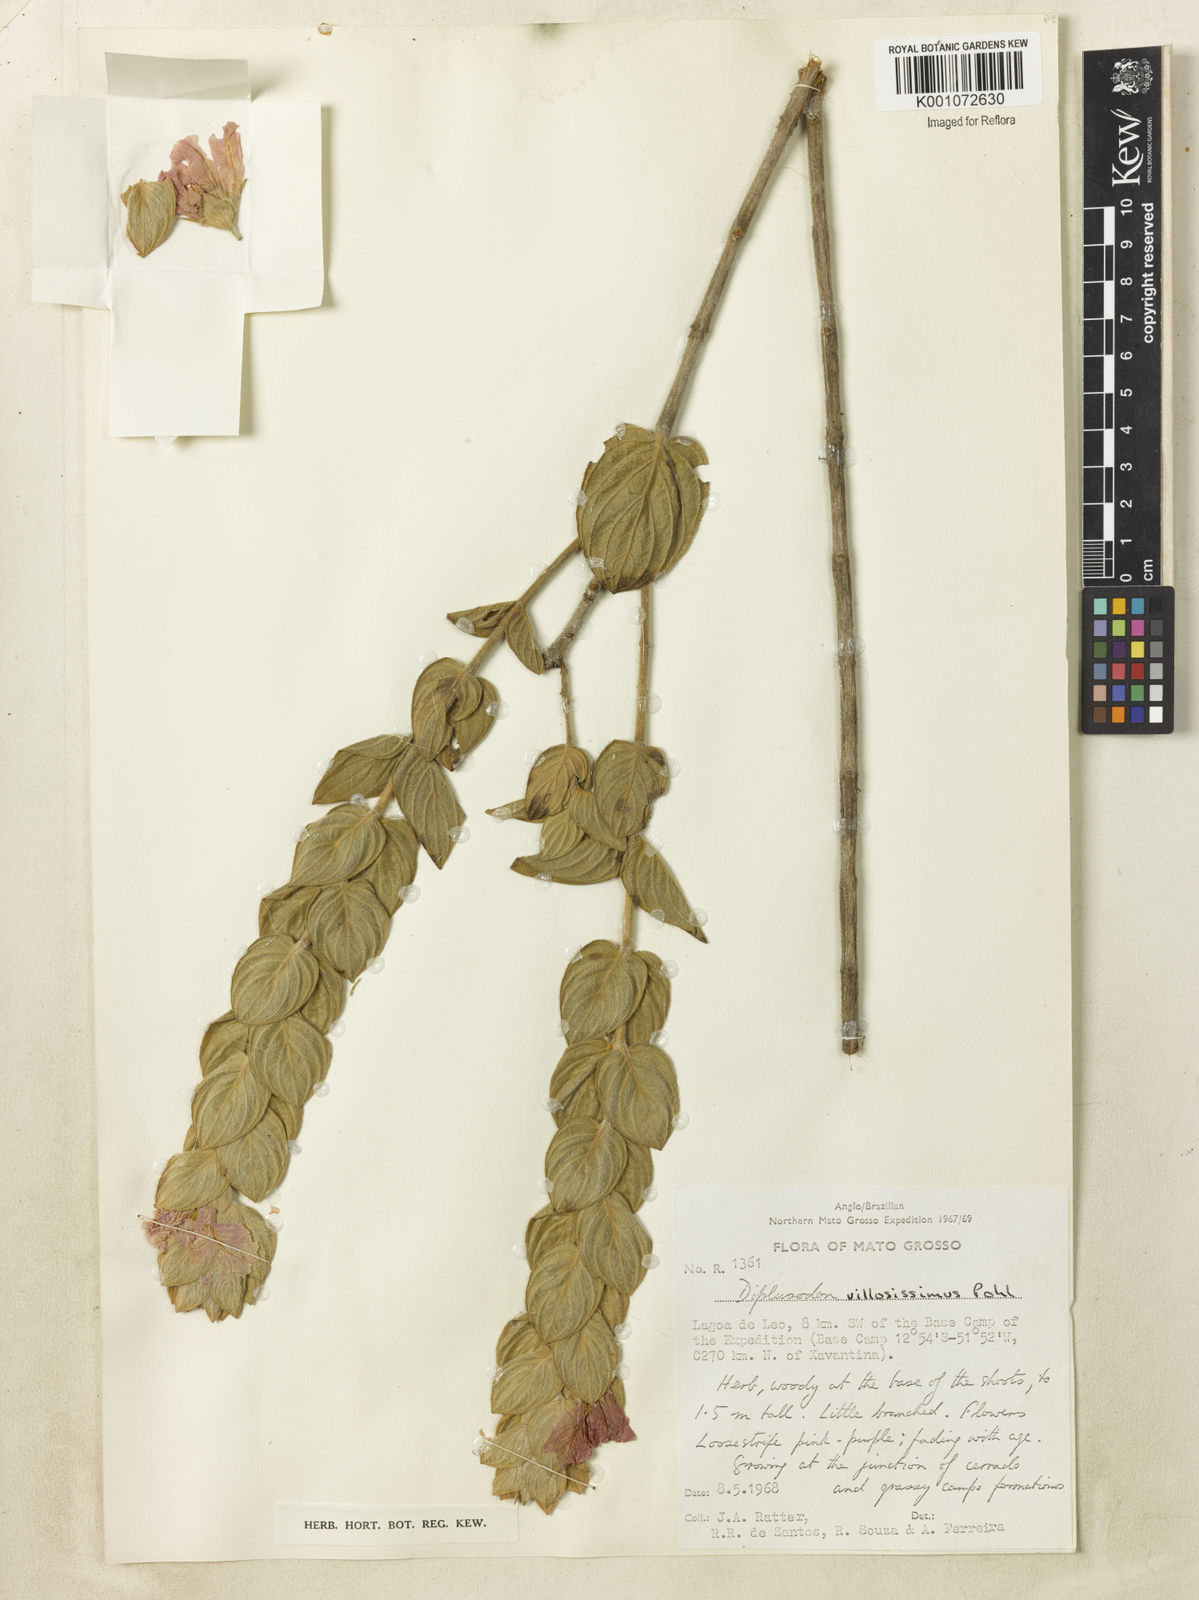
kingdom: Plantae
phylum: Tracheophyta
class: Magnoliopsida
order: Myrtales
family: Lythraceae
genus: Diplusodon
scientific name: Diplusodon villosissimus
